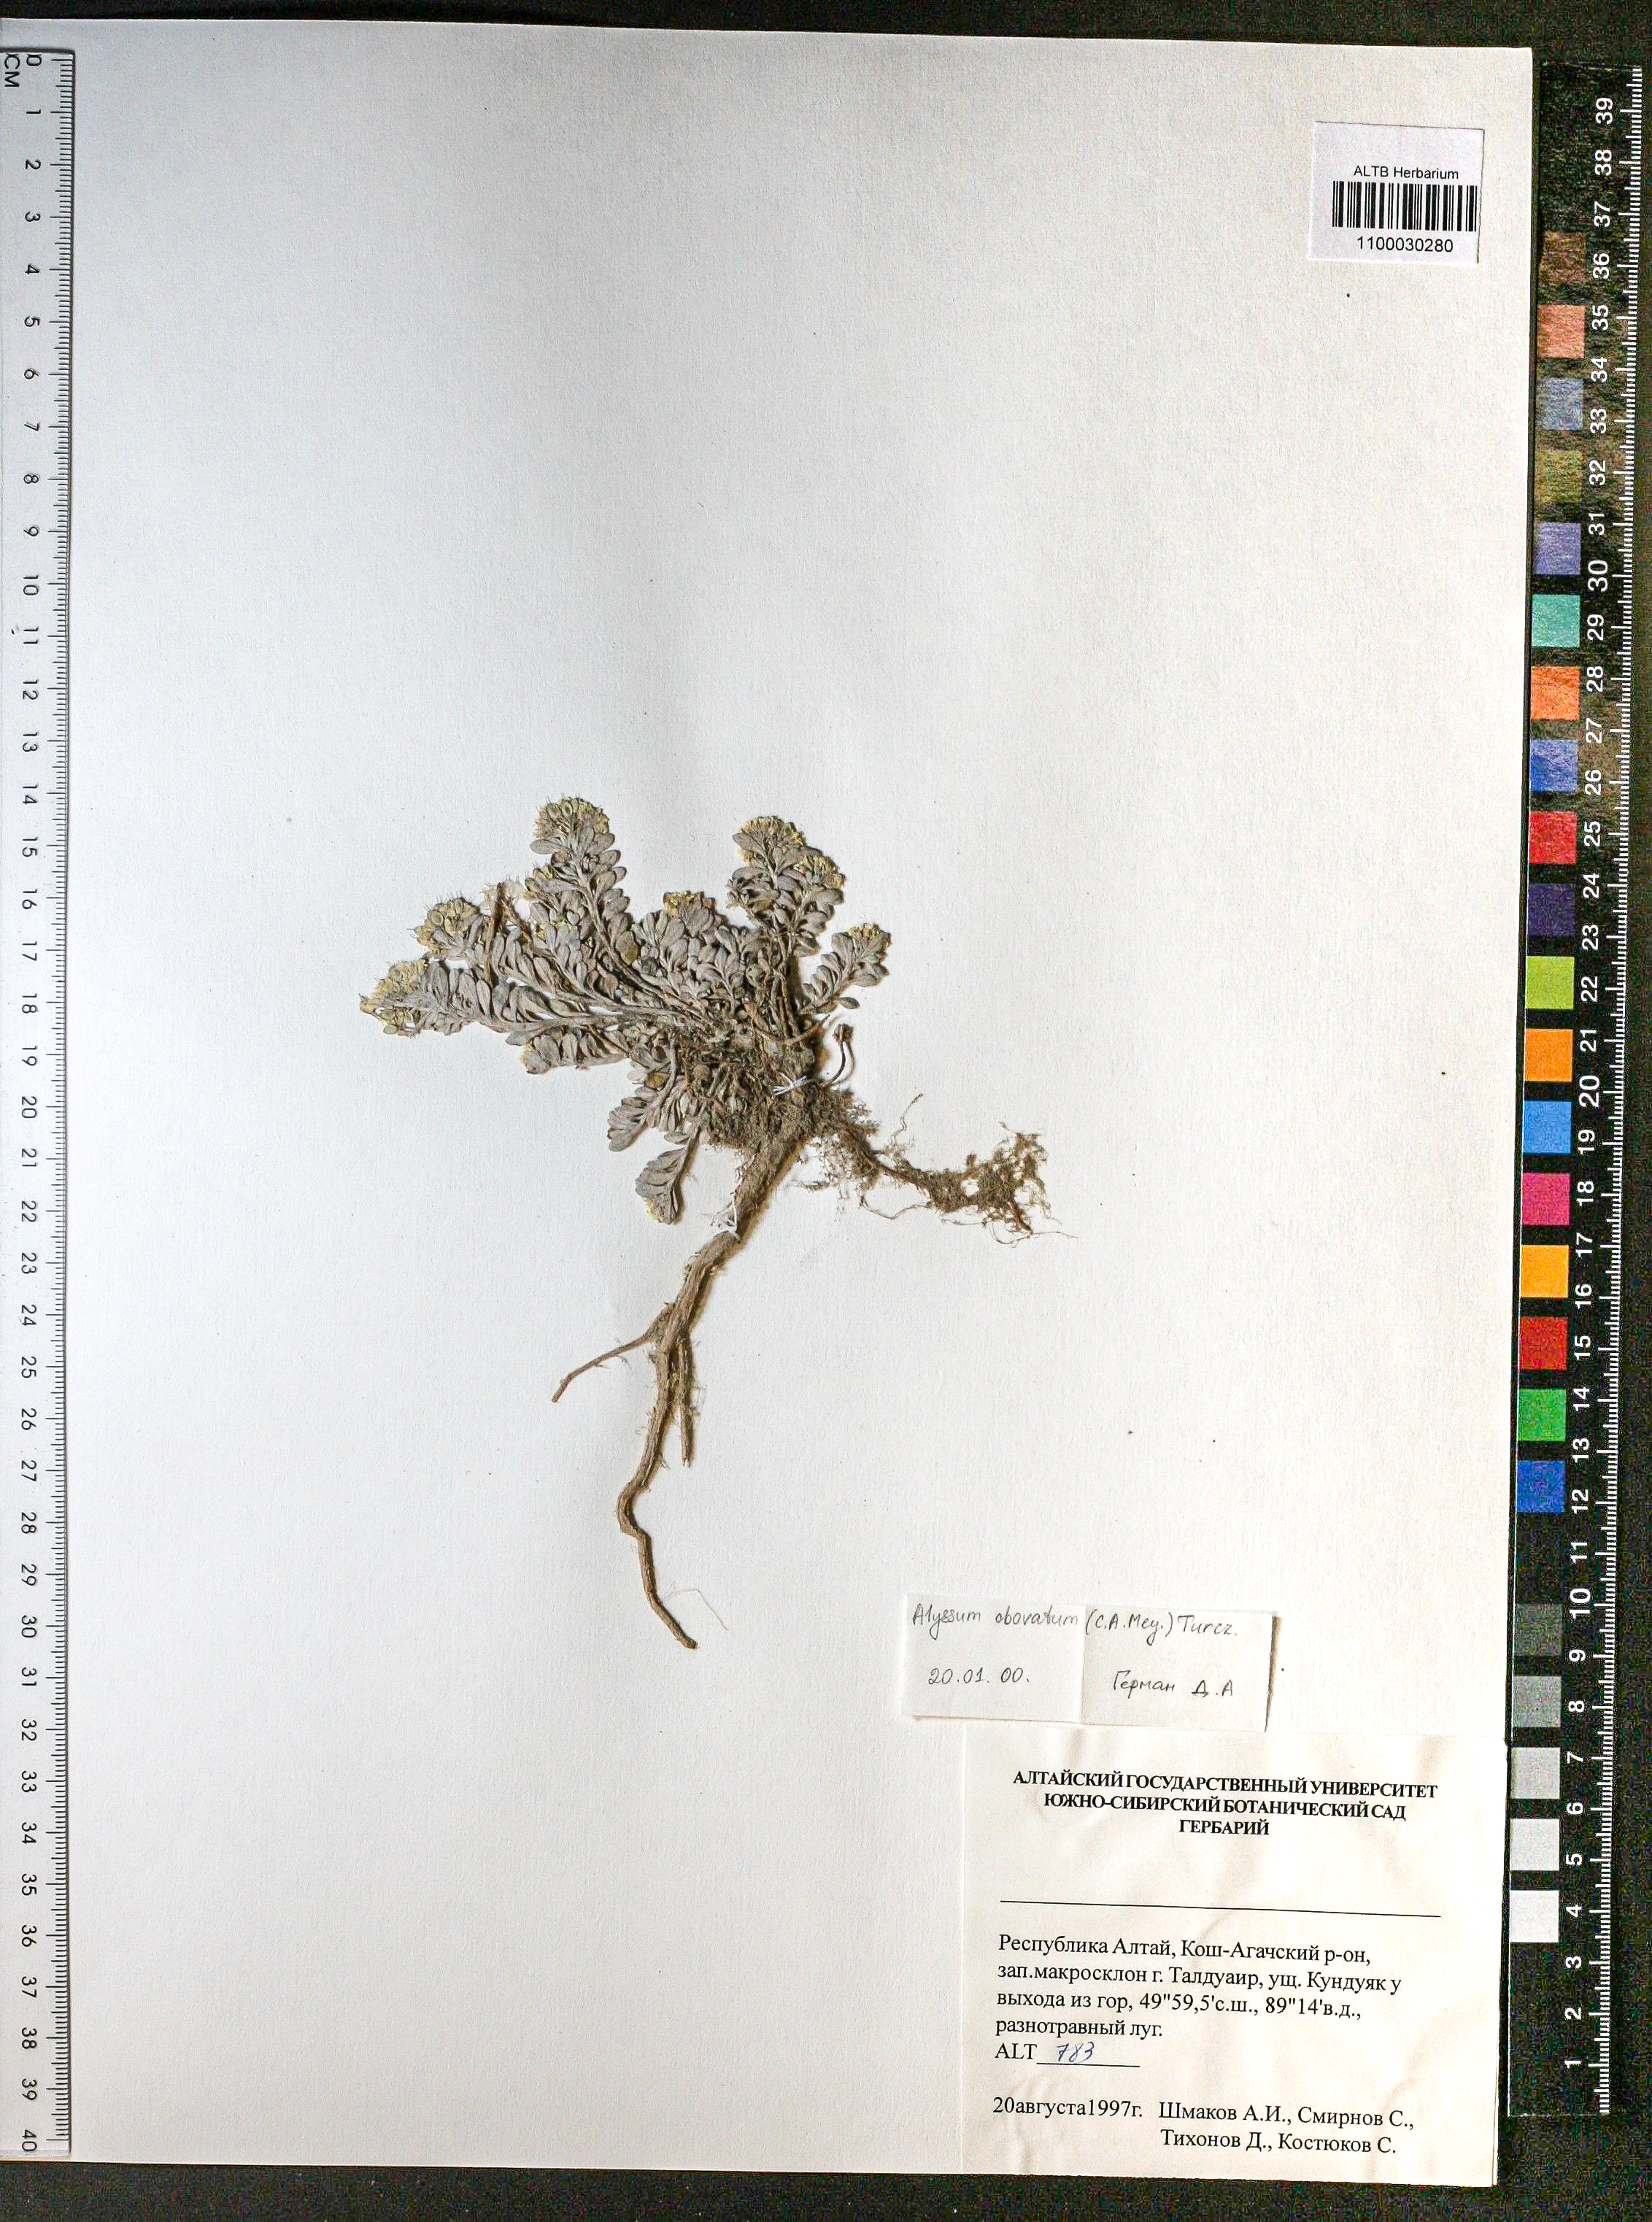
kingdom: Plantae
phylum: Tracheophyta
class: Magnoliopsida
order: Brassicales
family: Brassicaceae
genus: Odontarrhena
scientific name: Odontarrhena obovata
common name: American alyssum
